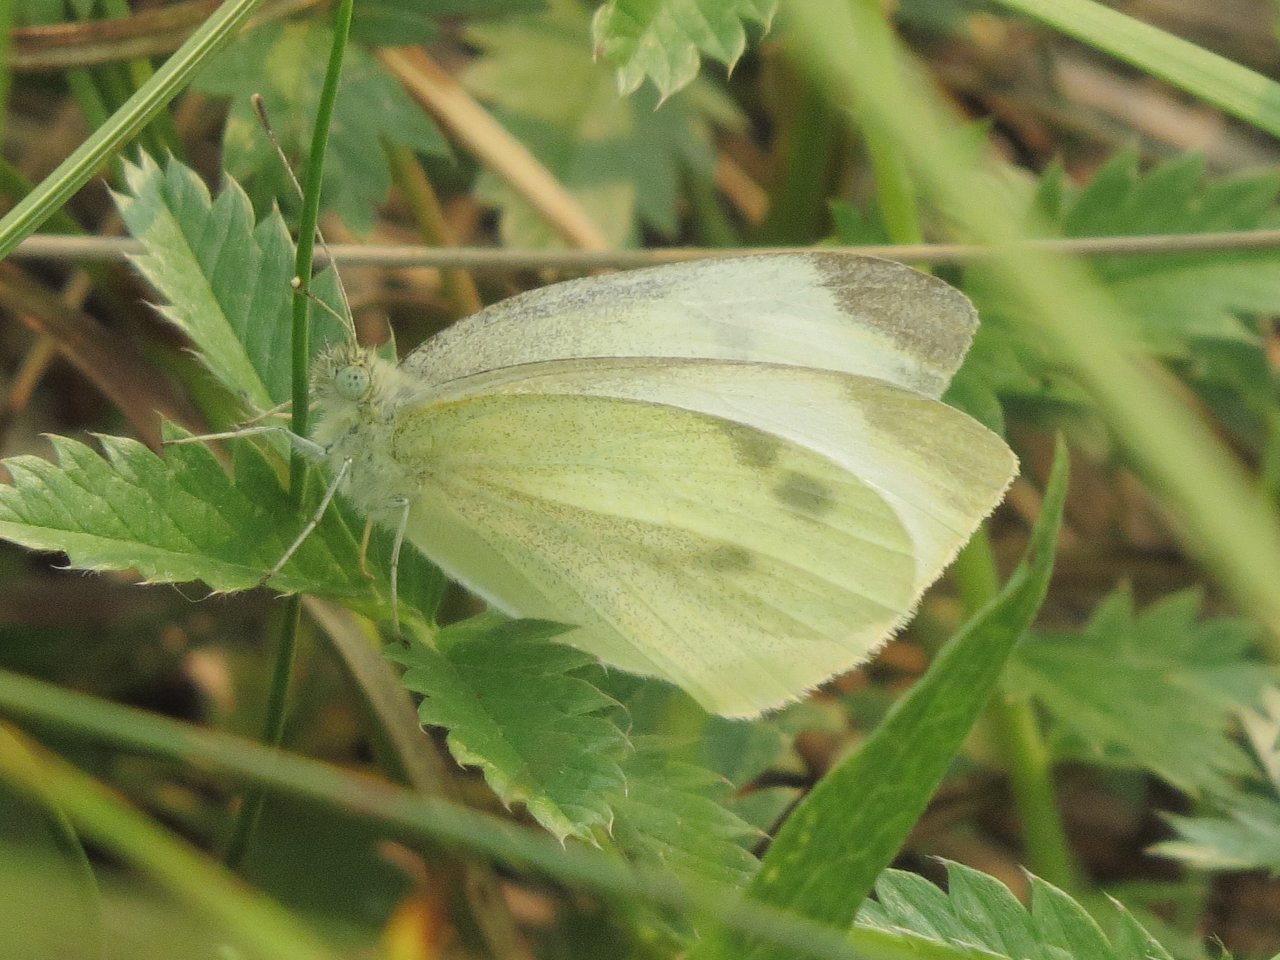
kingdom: Animalia
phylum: Arthropoda
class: Insecta
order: Lepidoptera
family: Pieridae
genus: Pieris
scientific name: Pieris rapae
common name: Cabbage White
